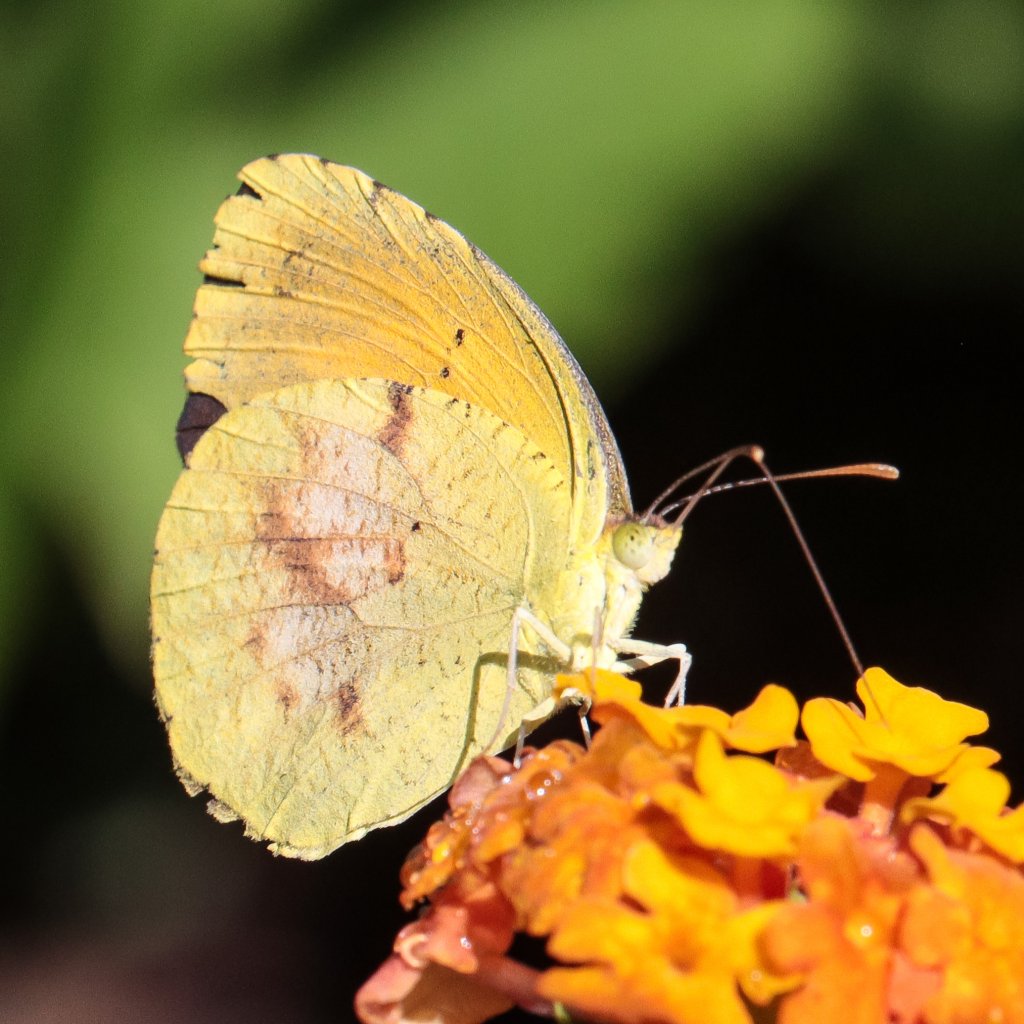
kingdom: Animalia
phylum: Arthropoda
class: Insecta
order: Lepidoptera
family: Pieridae
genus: Abaeis
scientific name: Abaeis nicippe
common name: Sleepy Orange
